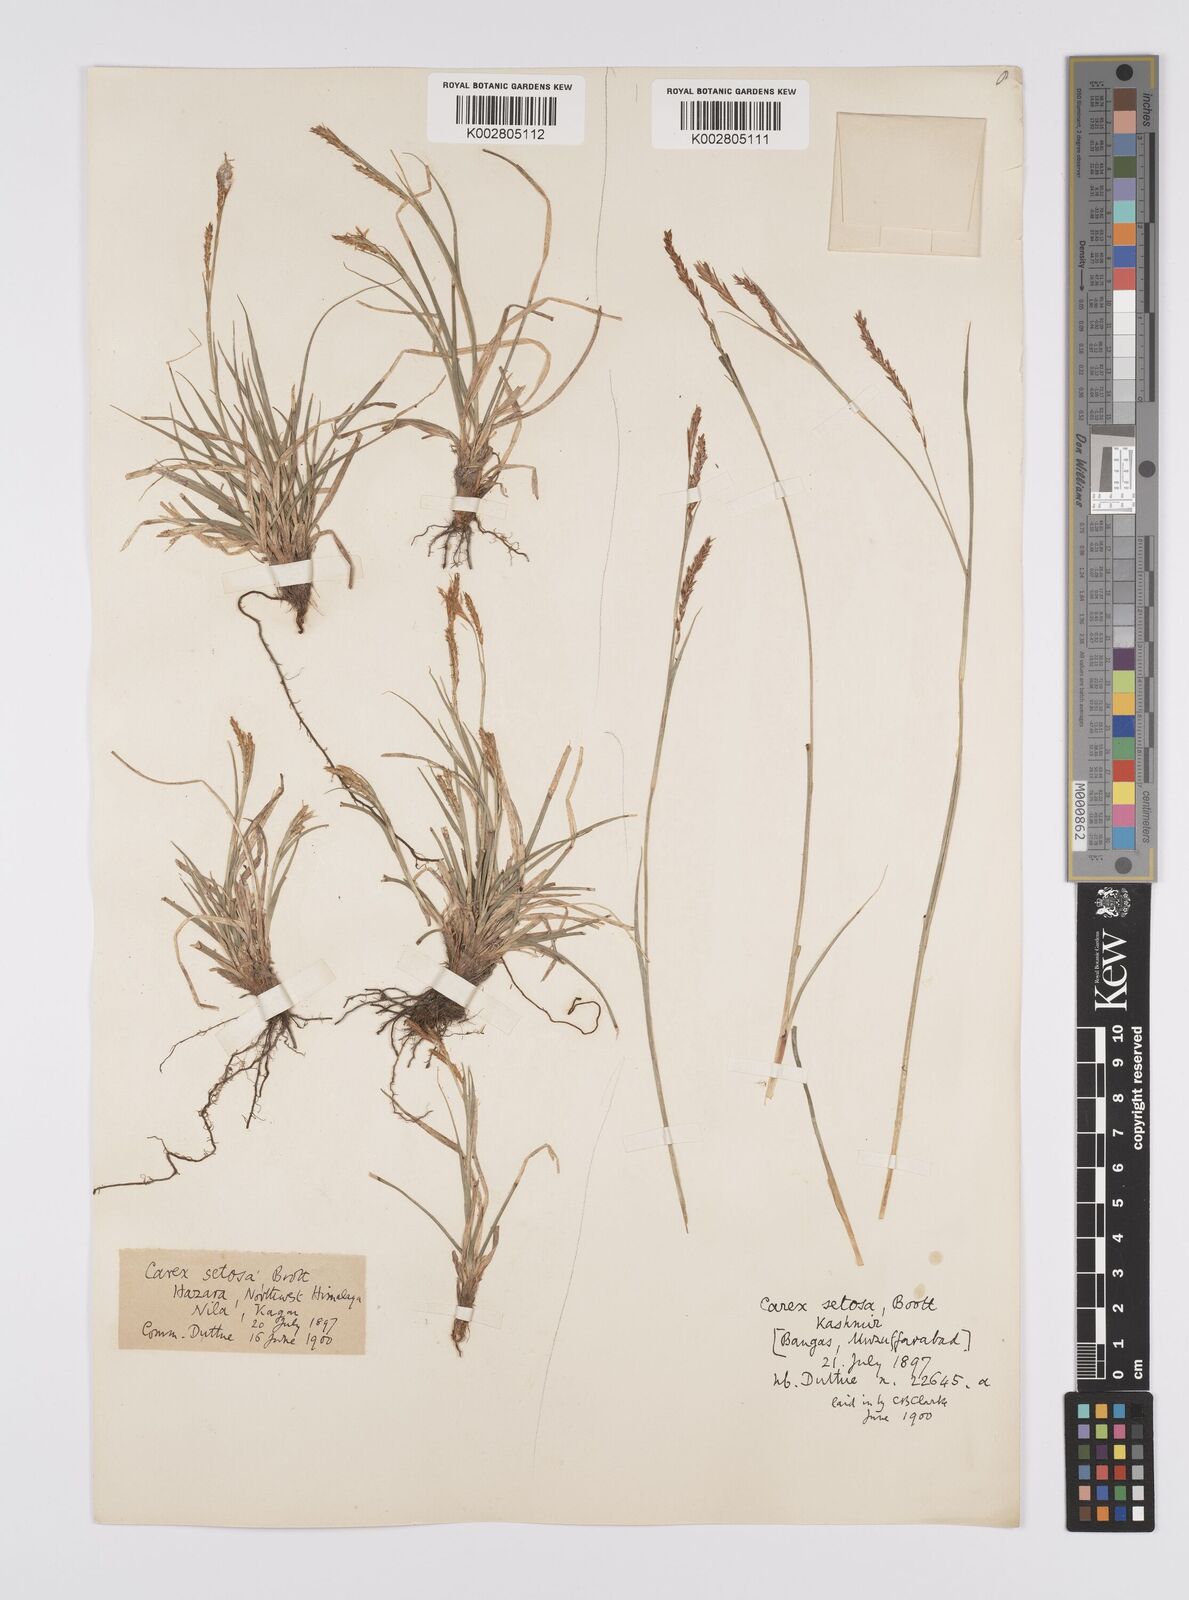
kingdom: Plantae
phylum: Tracheophyta
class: Liliopsida
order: Poales
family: Cyperaceae
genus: Carex
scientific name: Carex setosa
